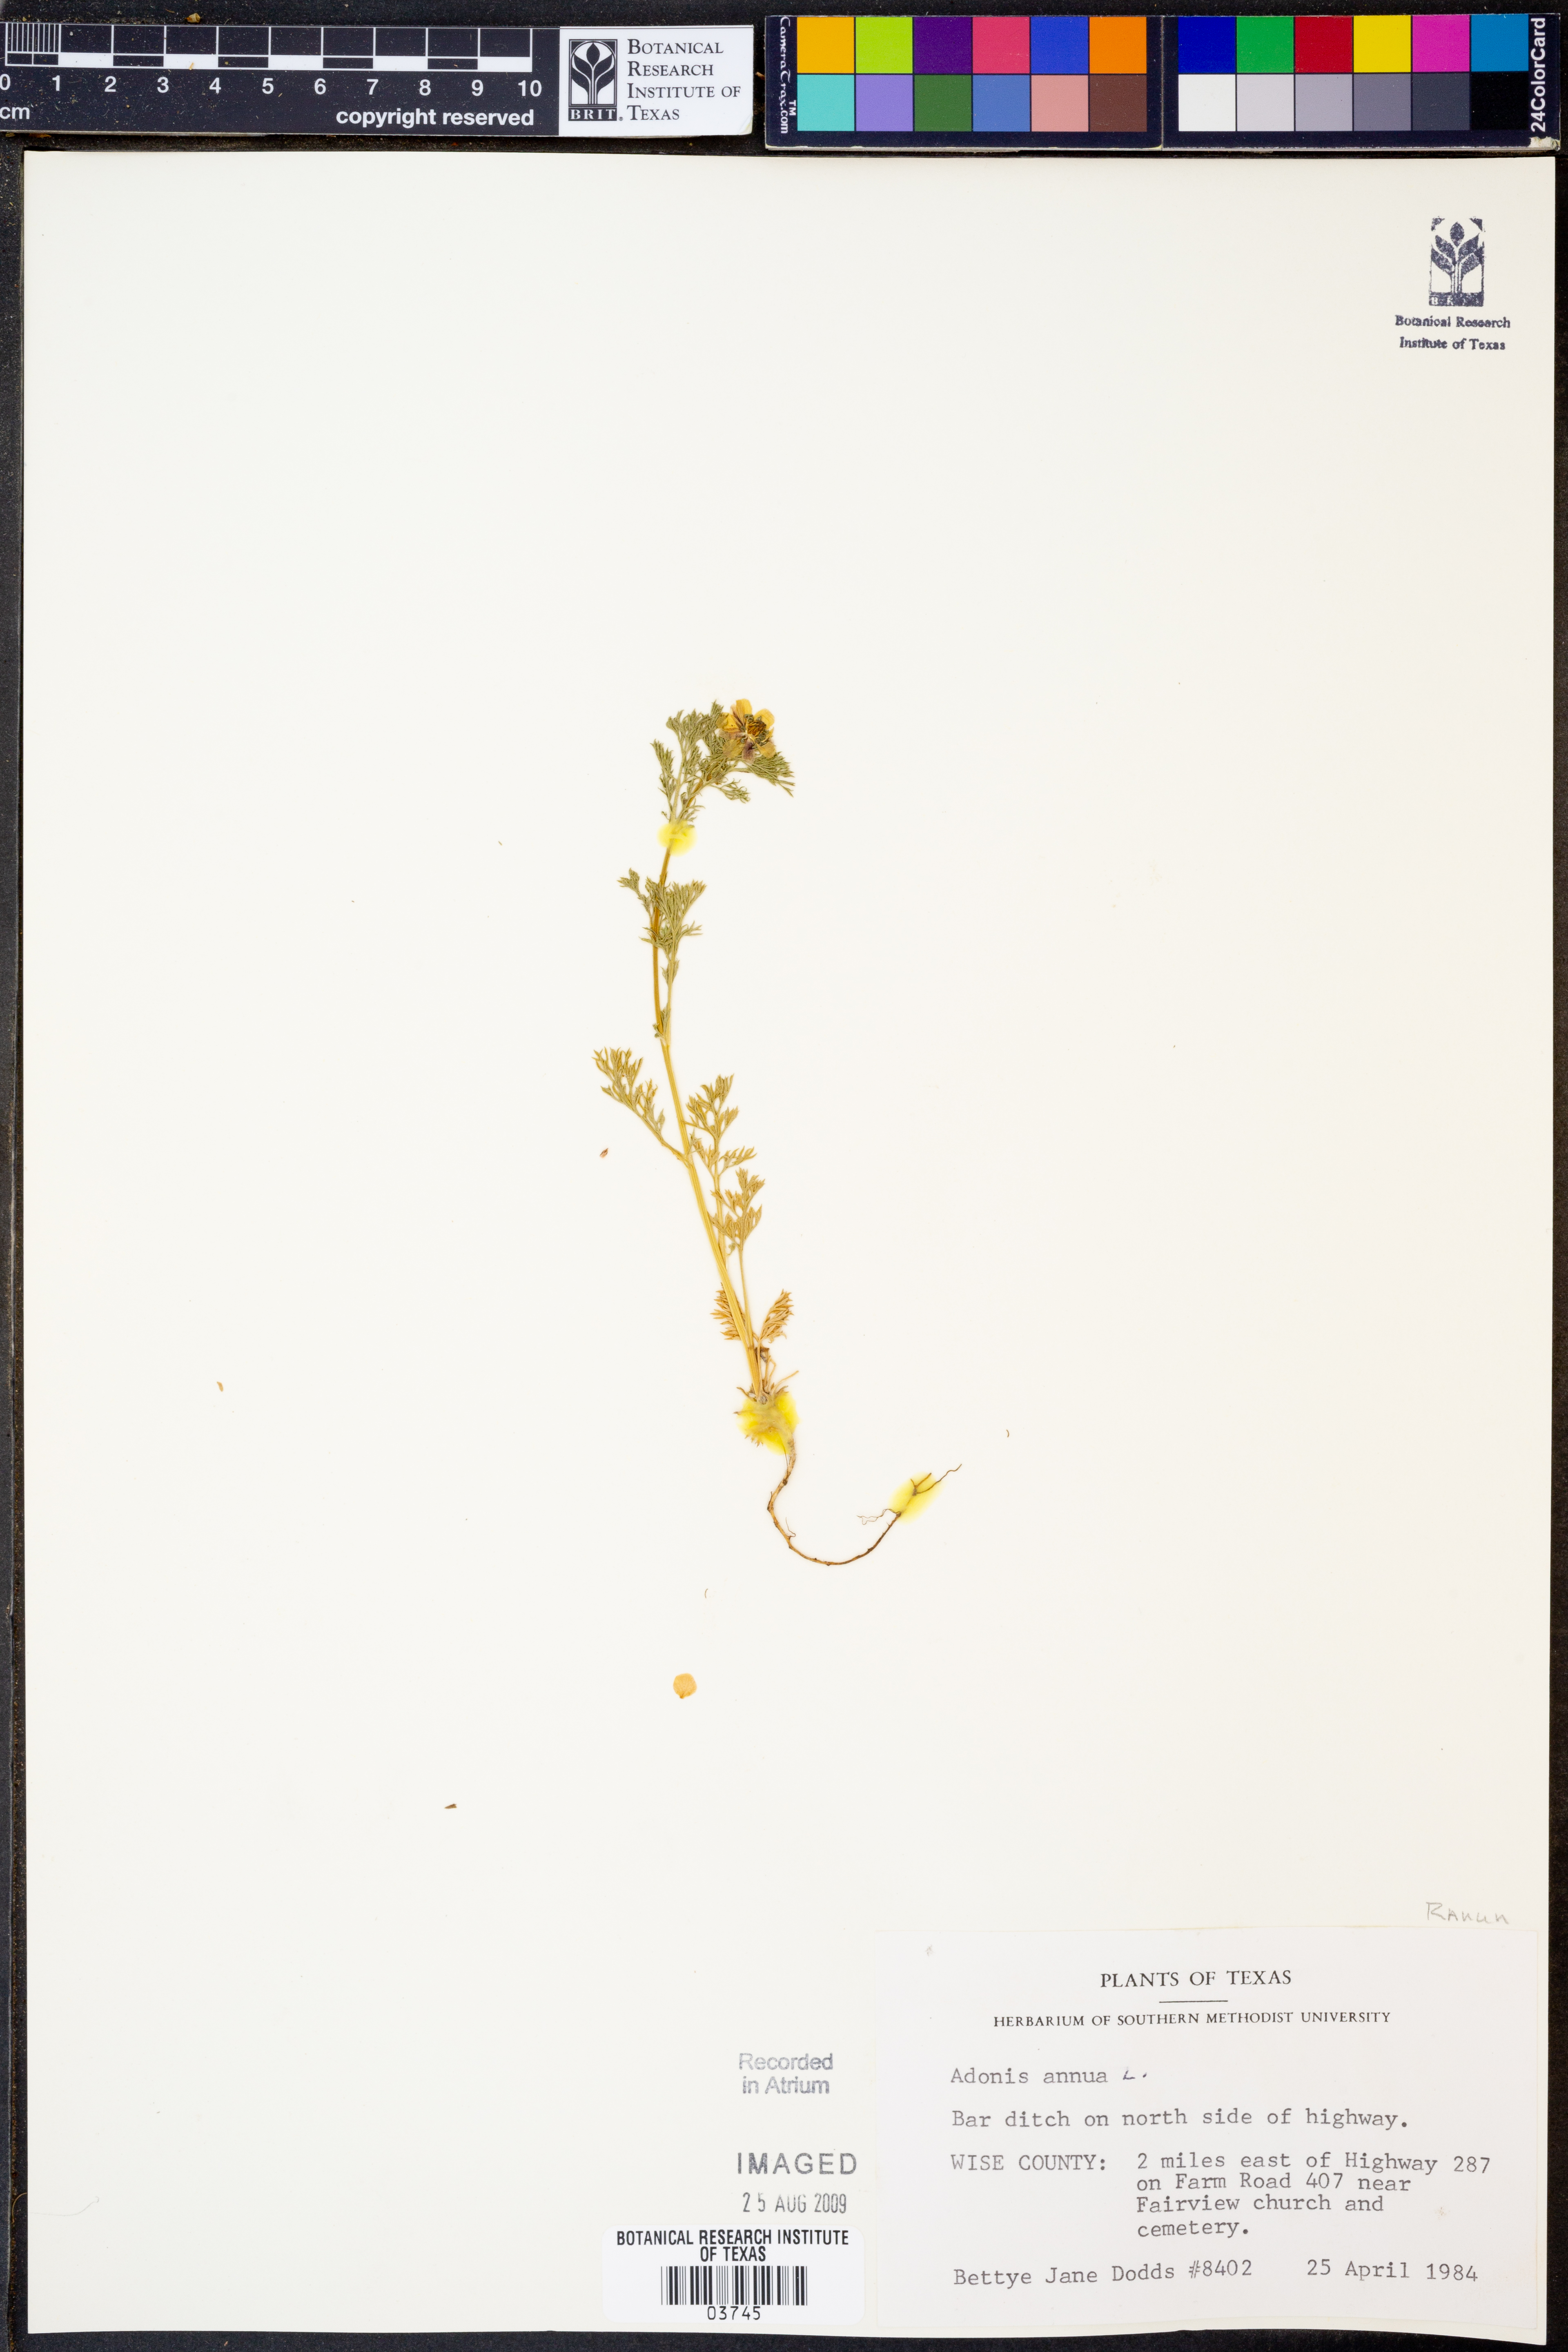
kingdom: Plantae
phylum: Tracheophyta
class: Magnoliopsida
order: Ranunculales
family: Ranunculaceae
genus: Adonis
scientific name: Adonis annua
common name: Pheasant's-eye
